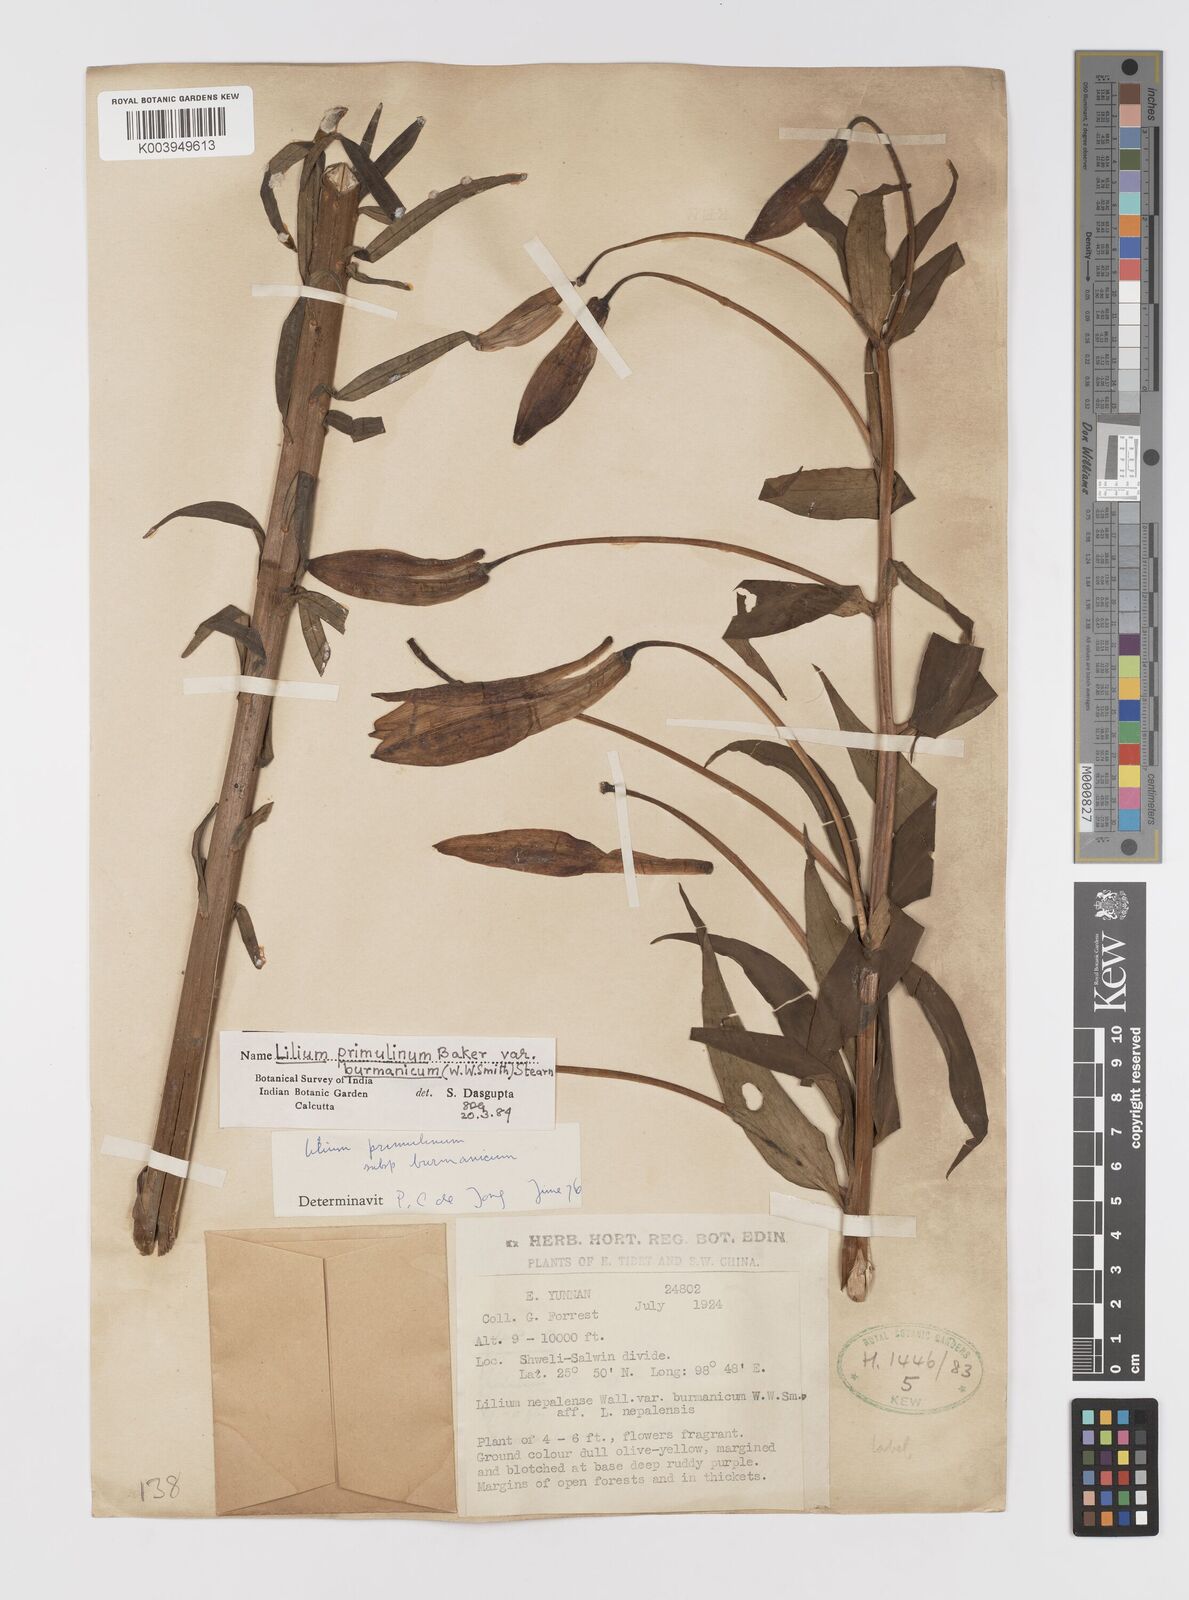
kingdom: Plantae
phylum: Tracheophyta
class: Liliopsida
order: Liliales
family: Liliaceae
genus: Lilium
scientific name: Lilium primulinum
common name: Ochre lily
